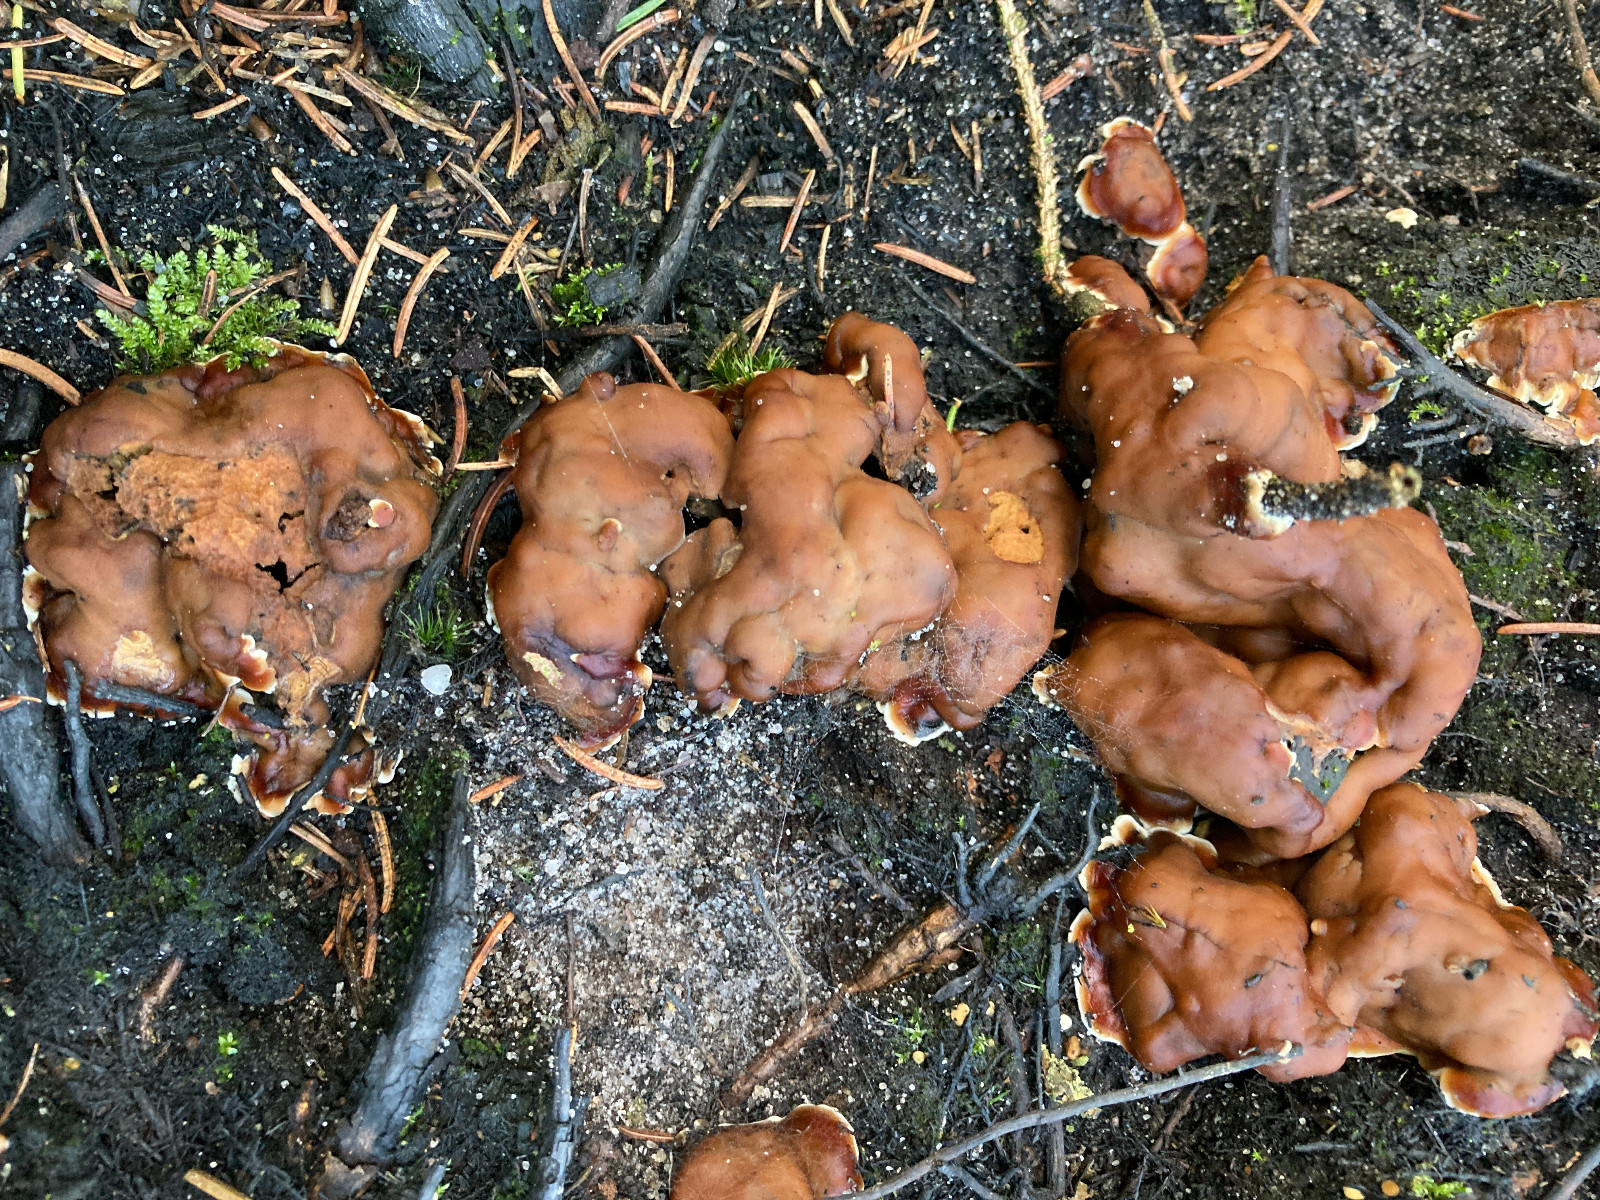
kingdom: Fungi
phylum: Ascomycota
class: Pezizomycetes
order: Pezizales
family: Rhizinaceae
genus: Rhizina
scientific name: Rhizina undulata
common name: rodmorkel
